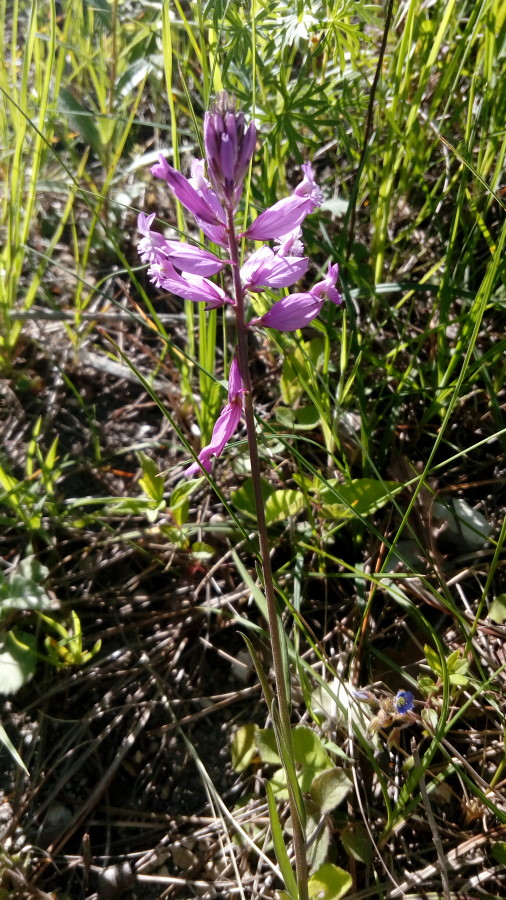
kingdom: Plantae
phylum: Tracheophyta
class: Magnoliopsida
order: Fabales
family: Polygalaceae
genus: Polygala
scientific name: Polygala
